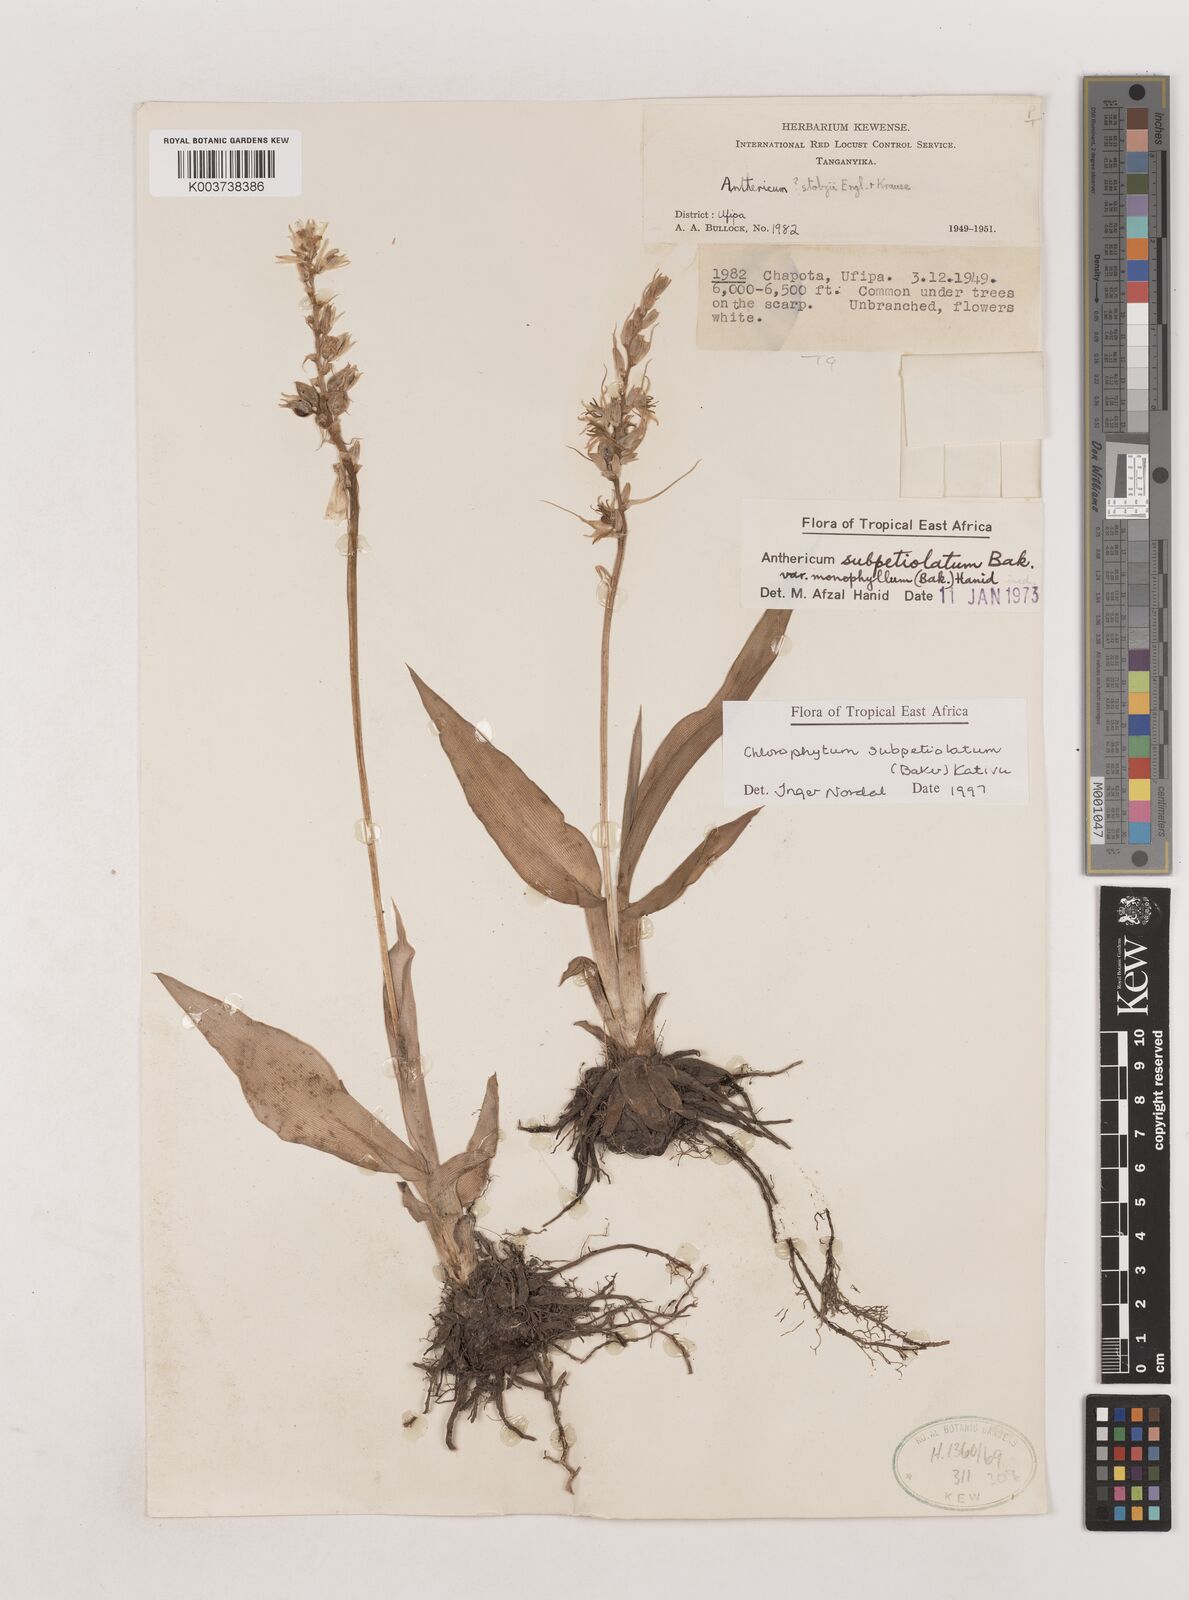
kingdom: Plantae
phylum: Tracheophyta
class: Liliopsida
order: Asparagales
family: Asparagaceae
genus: Chlorophytum
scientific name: Chlorophytum subpetiolatum
